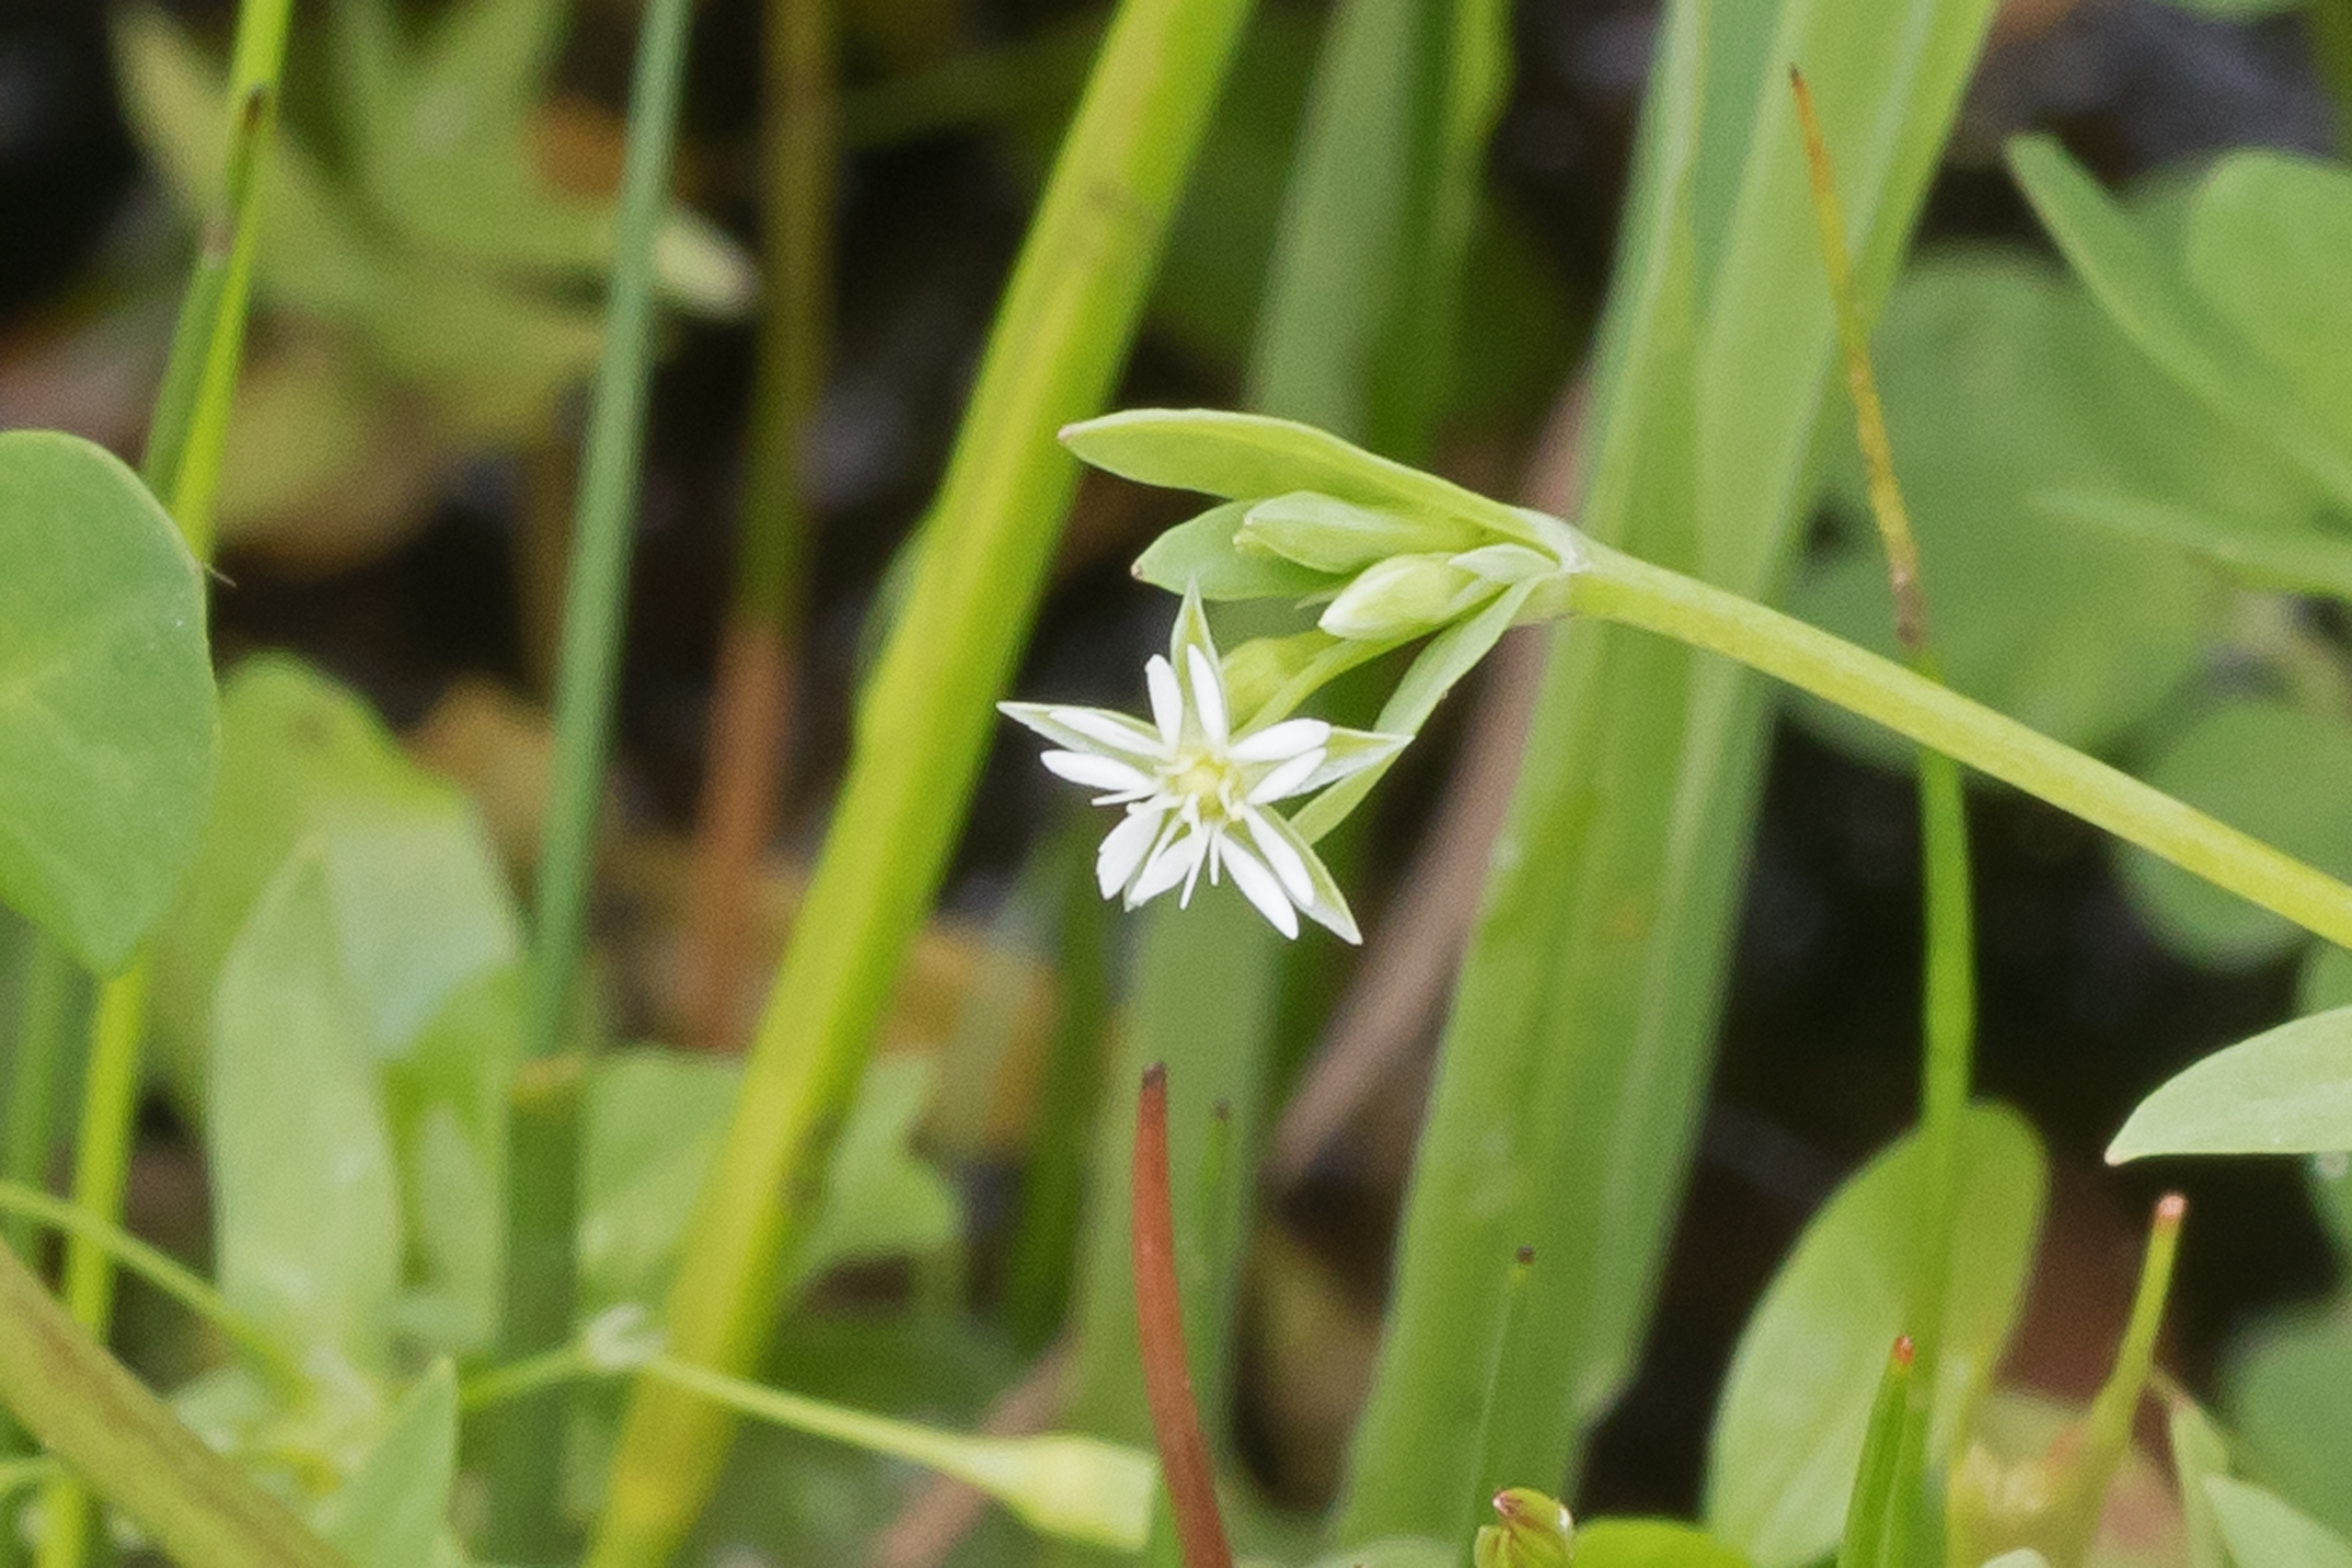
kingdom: Plantae
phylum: Tracheophyta
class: Magnoliopsida
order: Caryophyllales
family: Caryophyllaceae
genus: Stellaria
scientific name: Stellaria alsine
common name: Sump-fladstjerne
